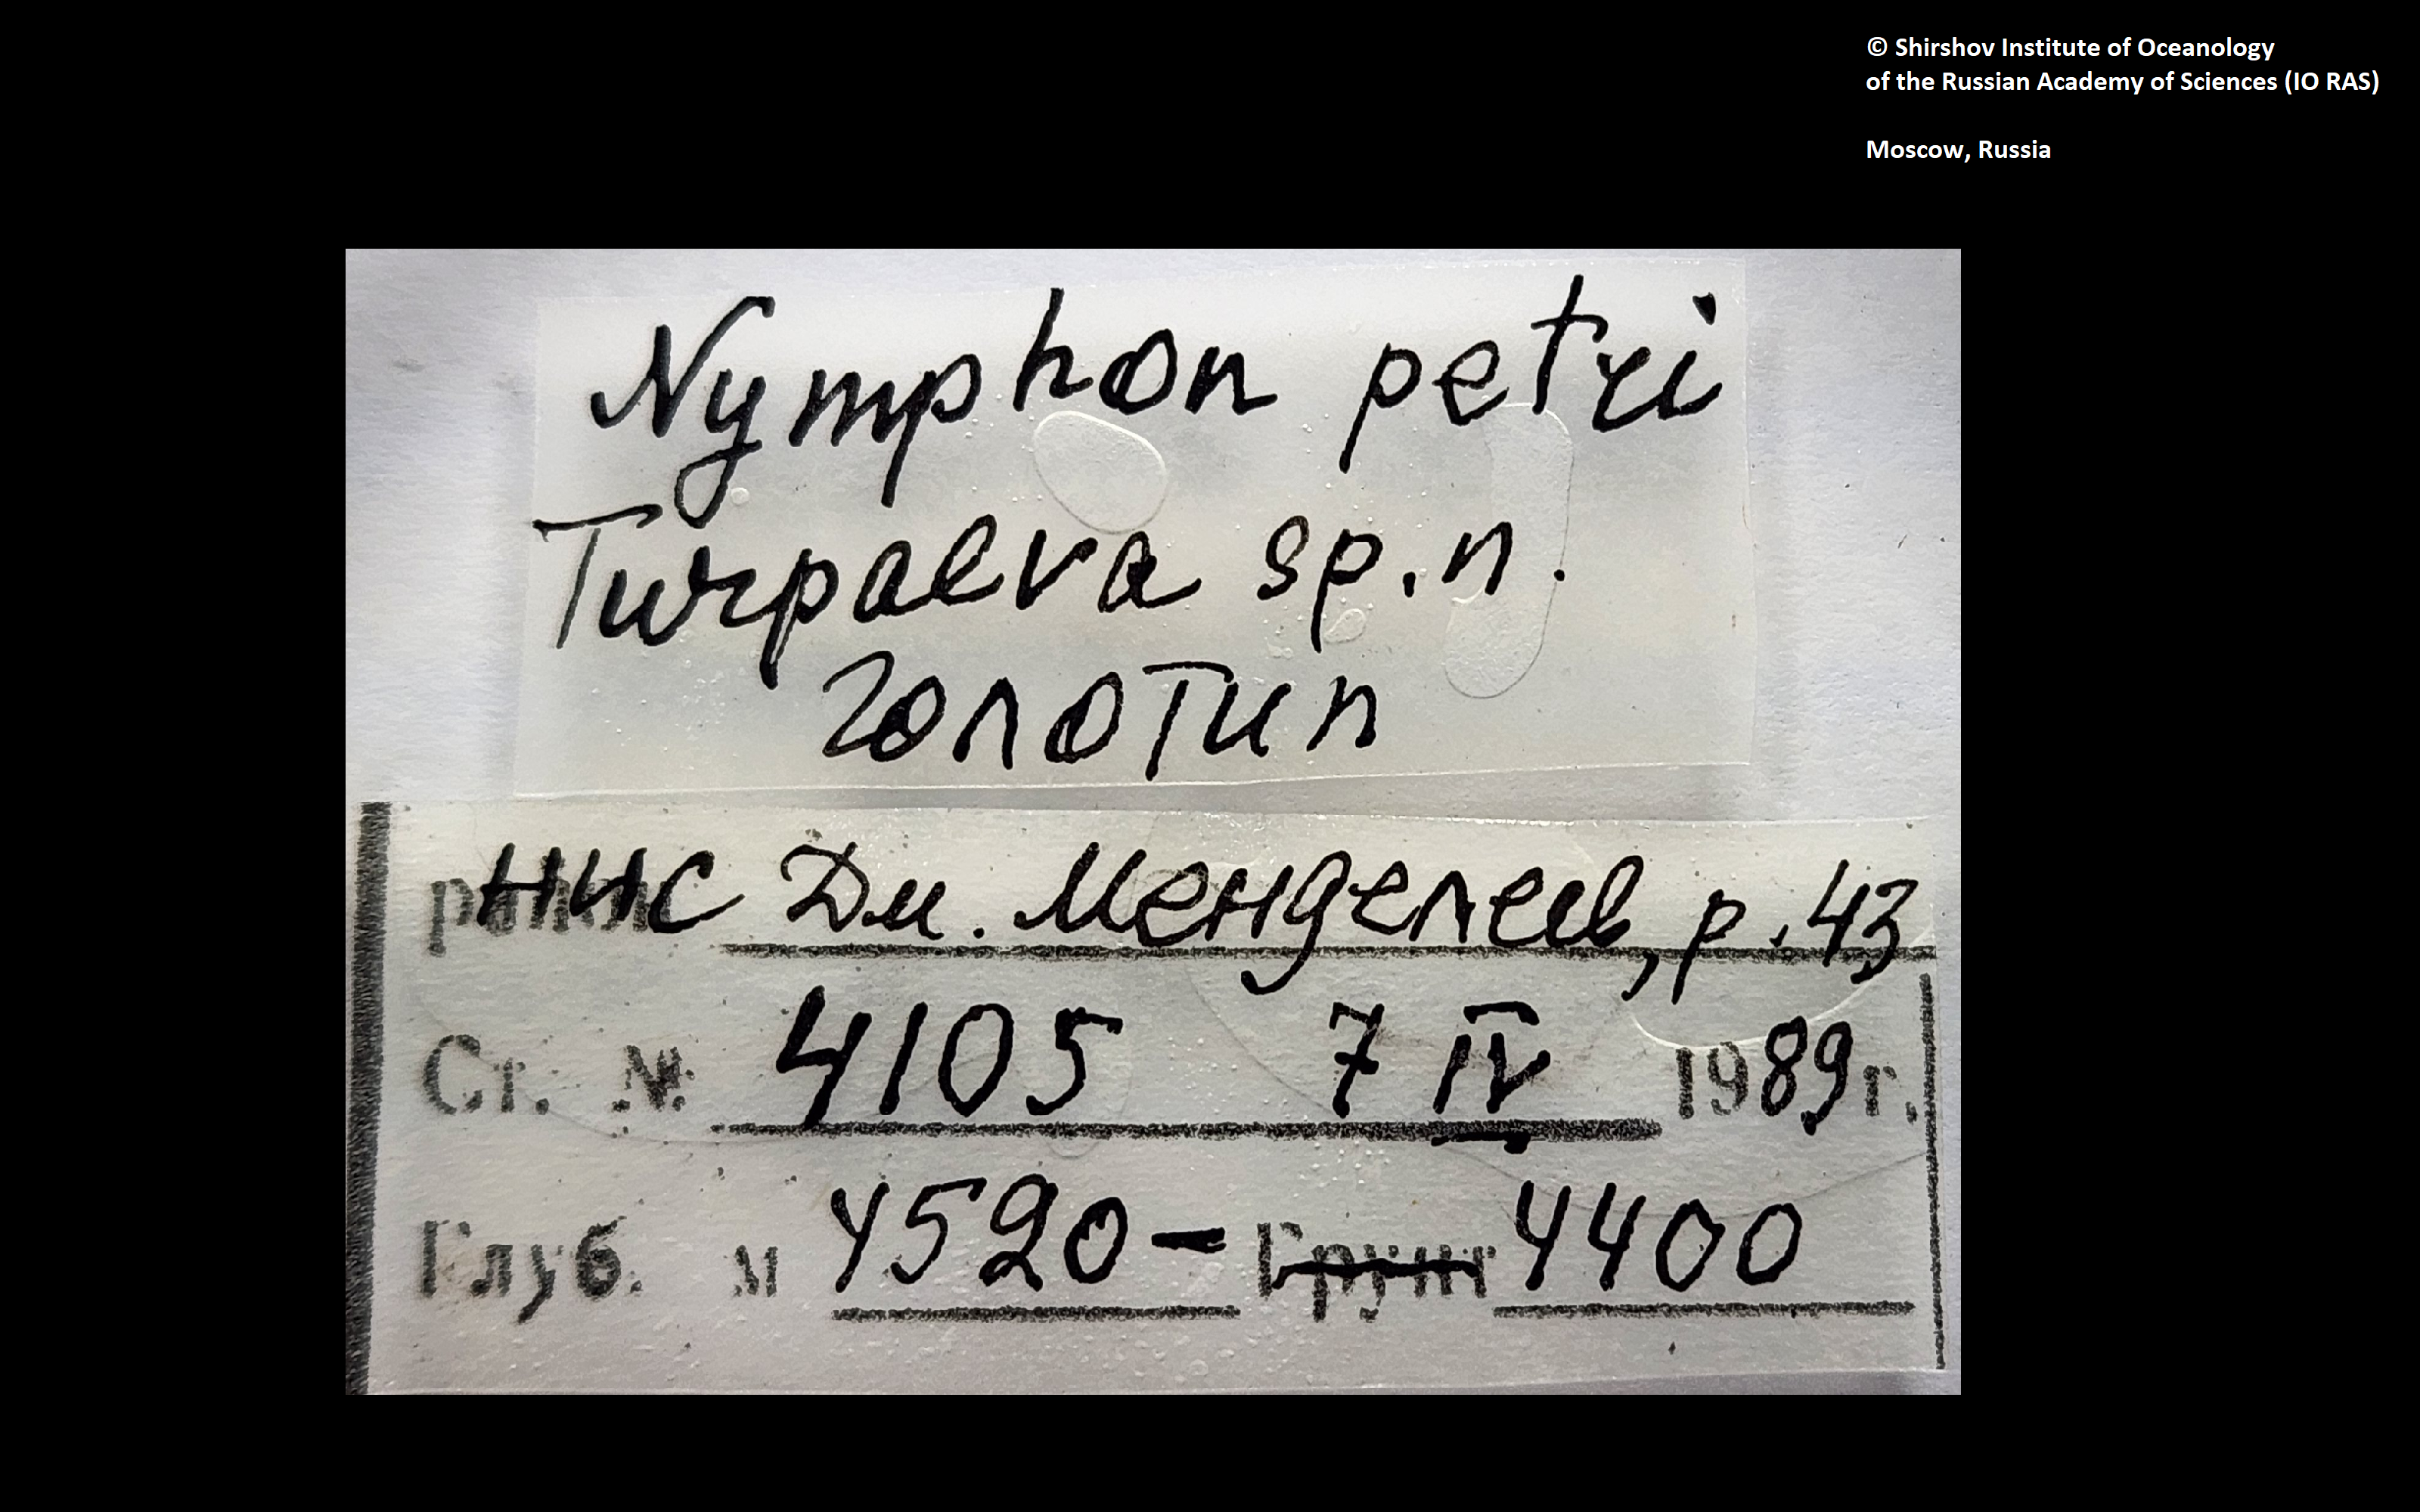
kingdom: Animalia
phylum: Arthropoda
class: Pycnogonida
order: Pantopoda
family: Nymphonidae
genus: Nymphon
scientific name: Nymphon petri
